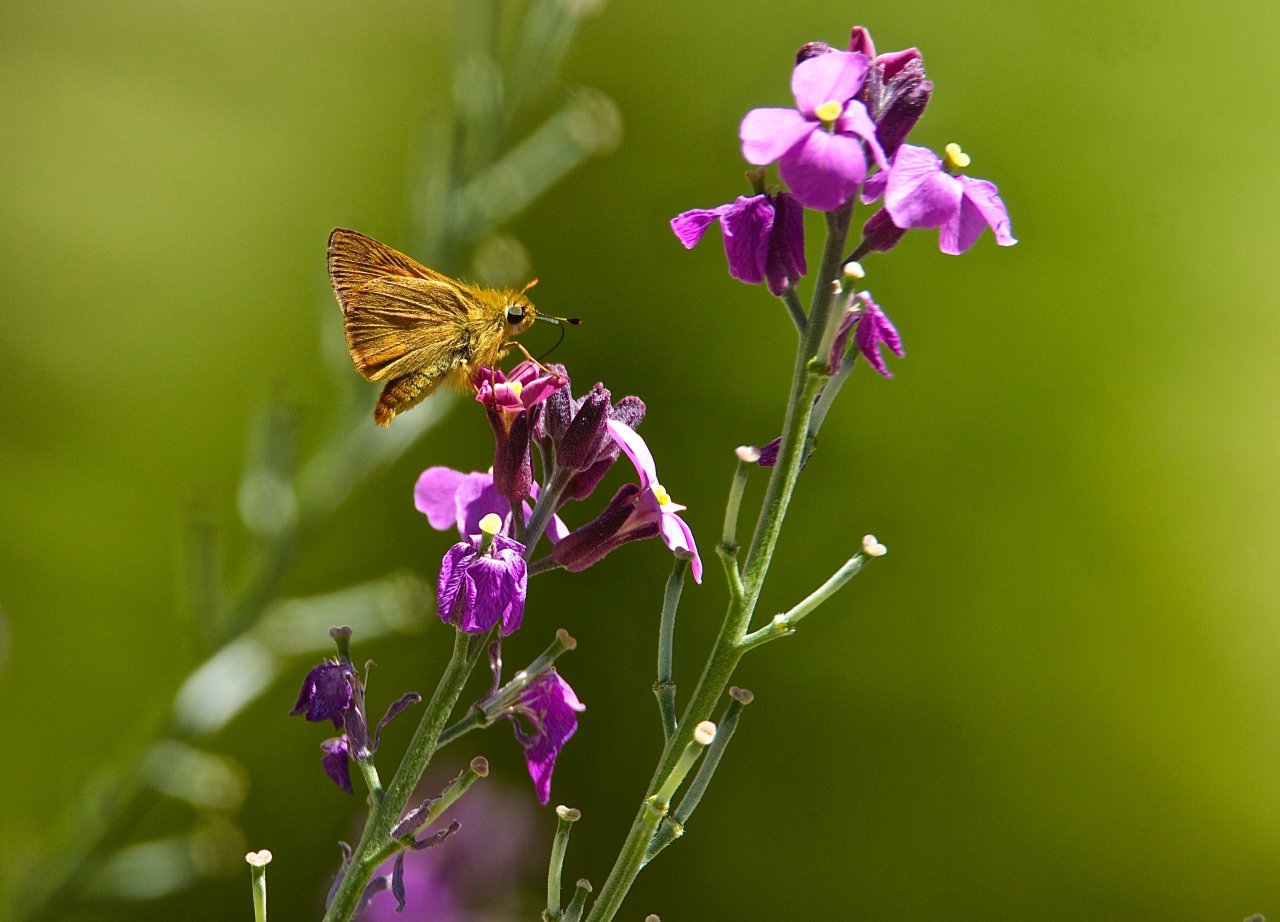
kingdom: Animalia
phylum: Arthropoda
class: Insecta
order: Lepidoptera
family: Hesperiidae
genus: Ochlodes
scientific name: Ochlodes sylvanoides
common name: Woodland Skipper
